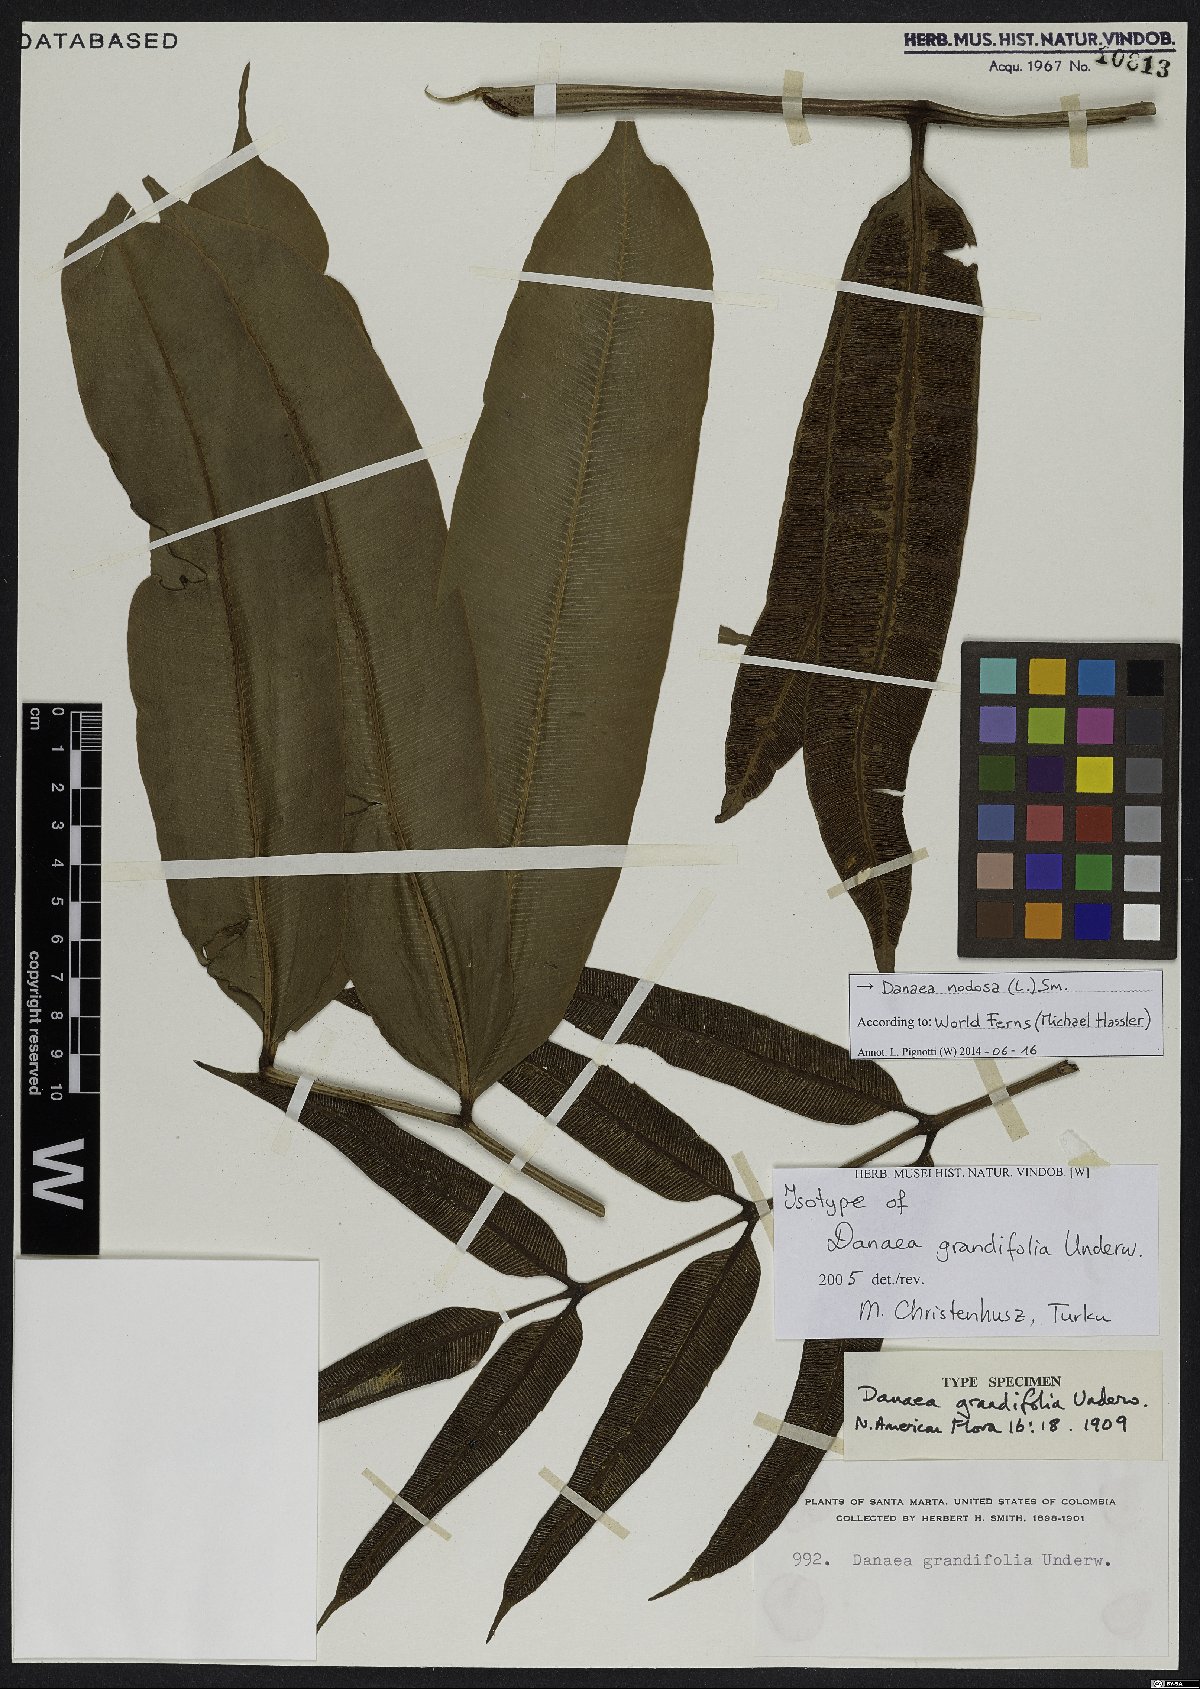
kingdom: Plantae
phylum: Tracheophyta
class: Polypodiopsida
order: Marattiales
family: Marattiaceae
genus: Danaea
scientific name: Danaea nodosa
